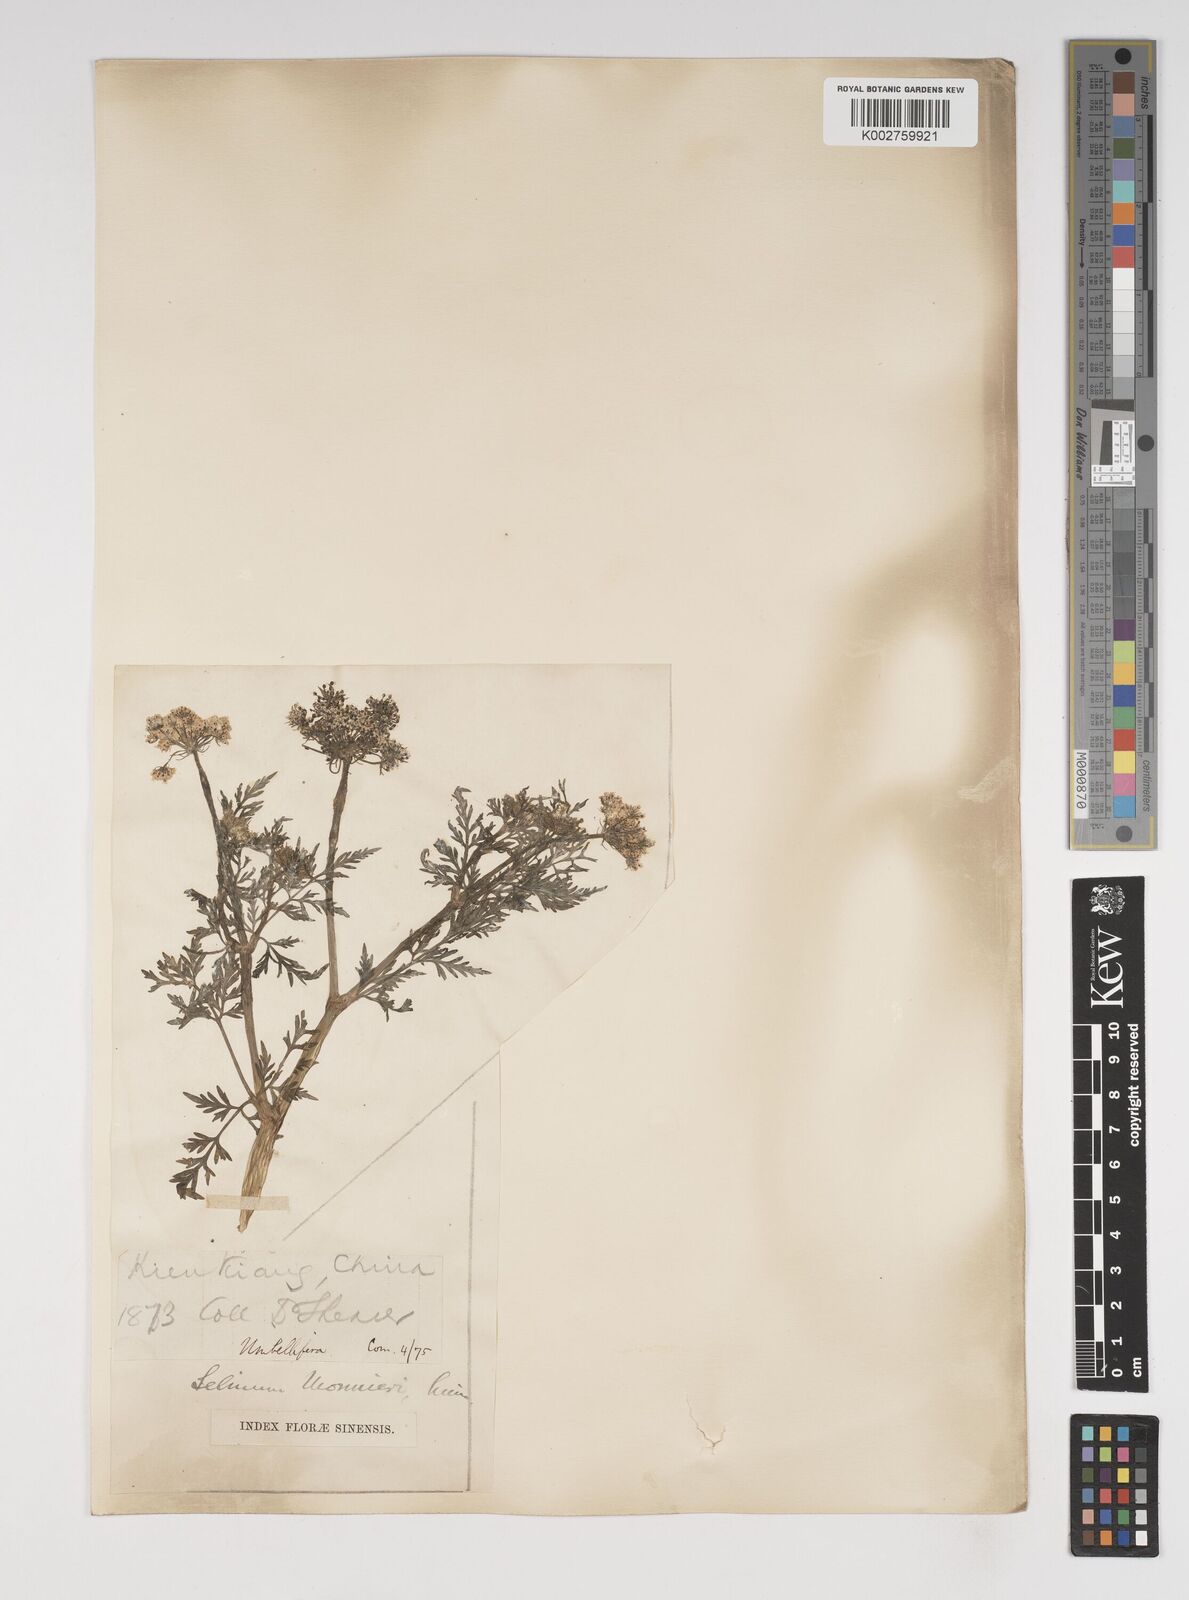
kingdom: Plantae
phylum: Tracheophyta
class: Magnoliopsida
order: Apiales
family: Apiaceae
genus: Cnidium
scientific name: Cnidium monnieri
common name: Monnier's snowparsley
